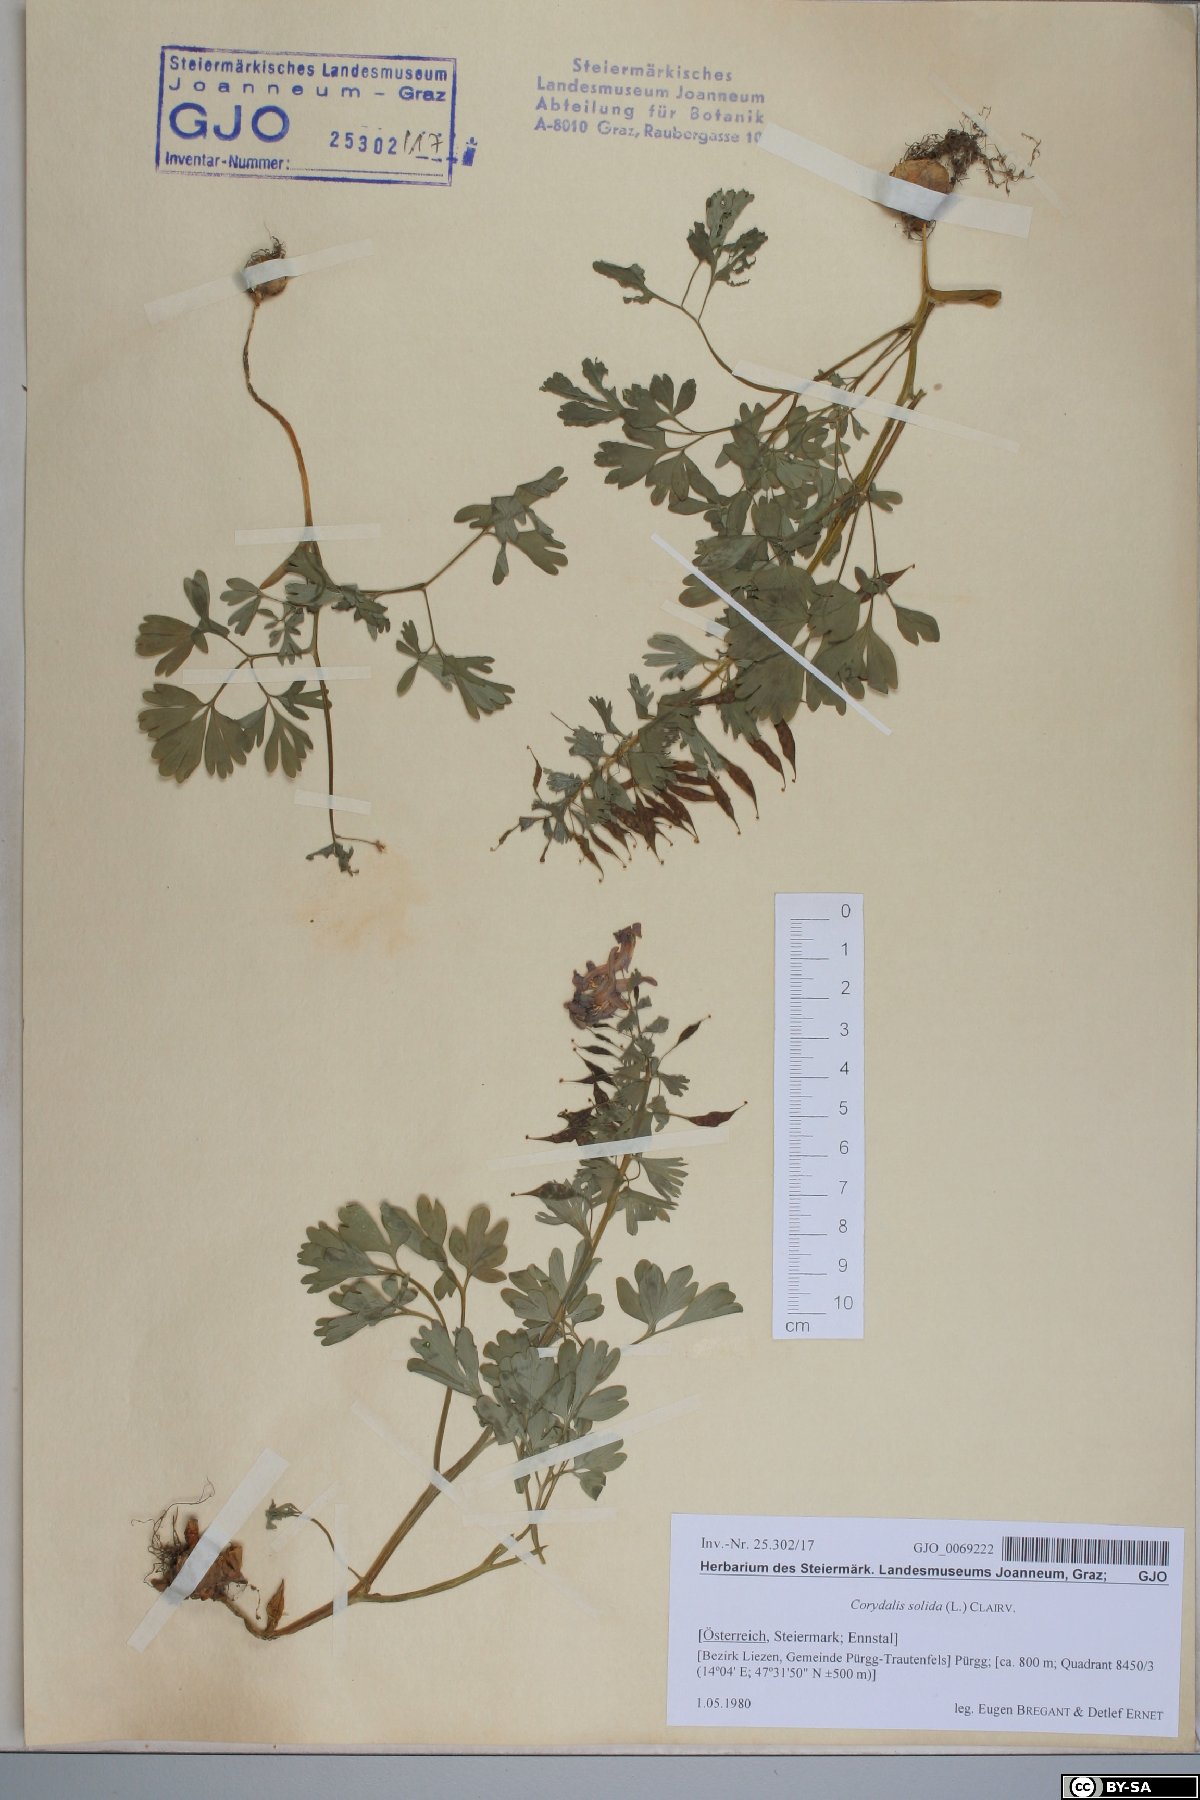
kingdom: Plantae
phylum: Tracheophyta
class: Magnoliopsida
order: Ranunculales
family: Papaveraceae
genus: Corydalis
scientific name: Corydalis solida
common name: Bird-in-a-bush
